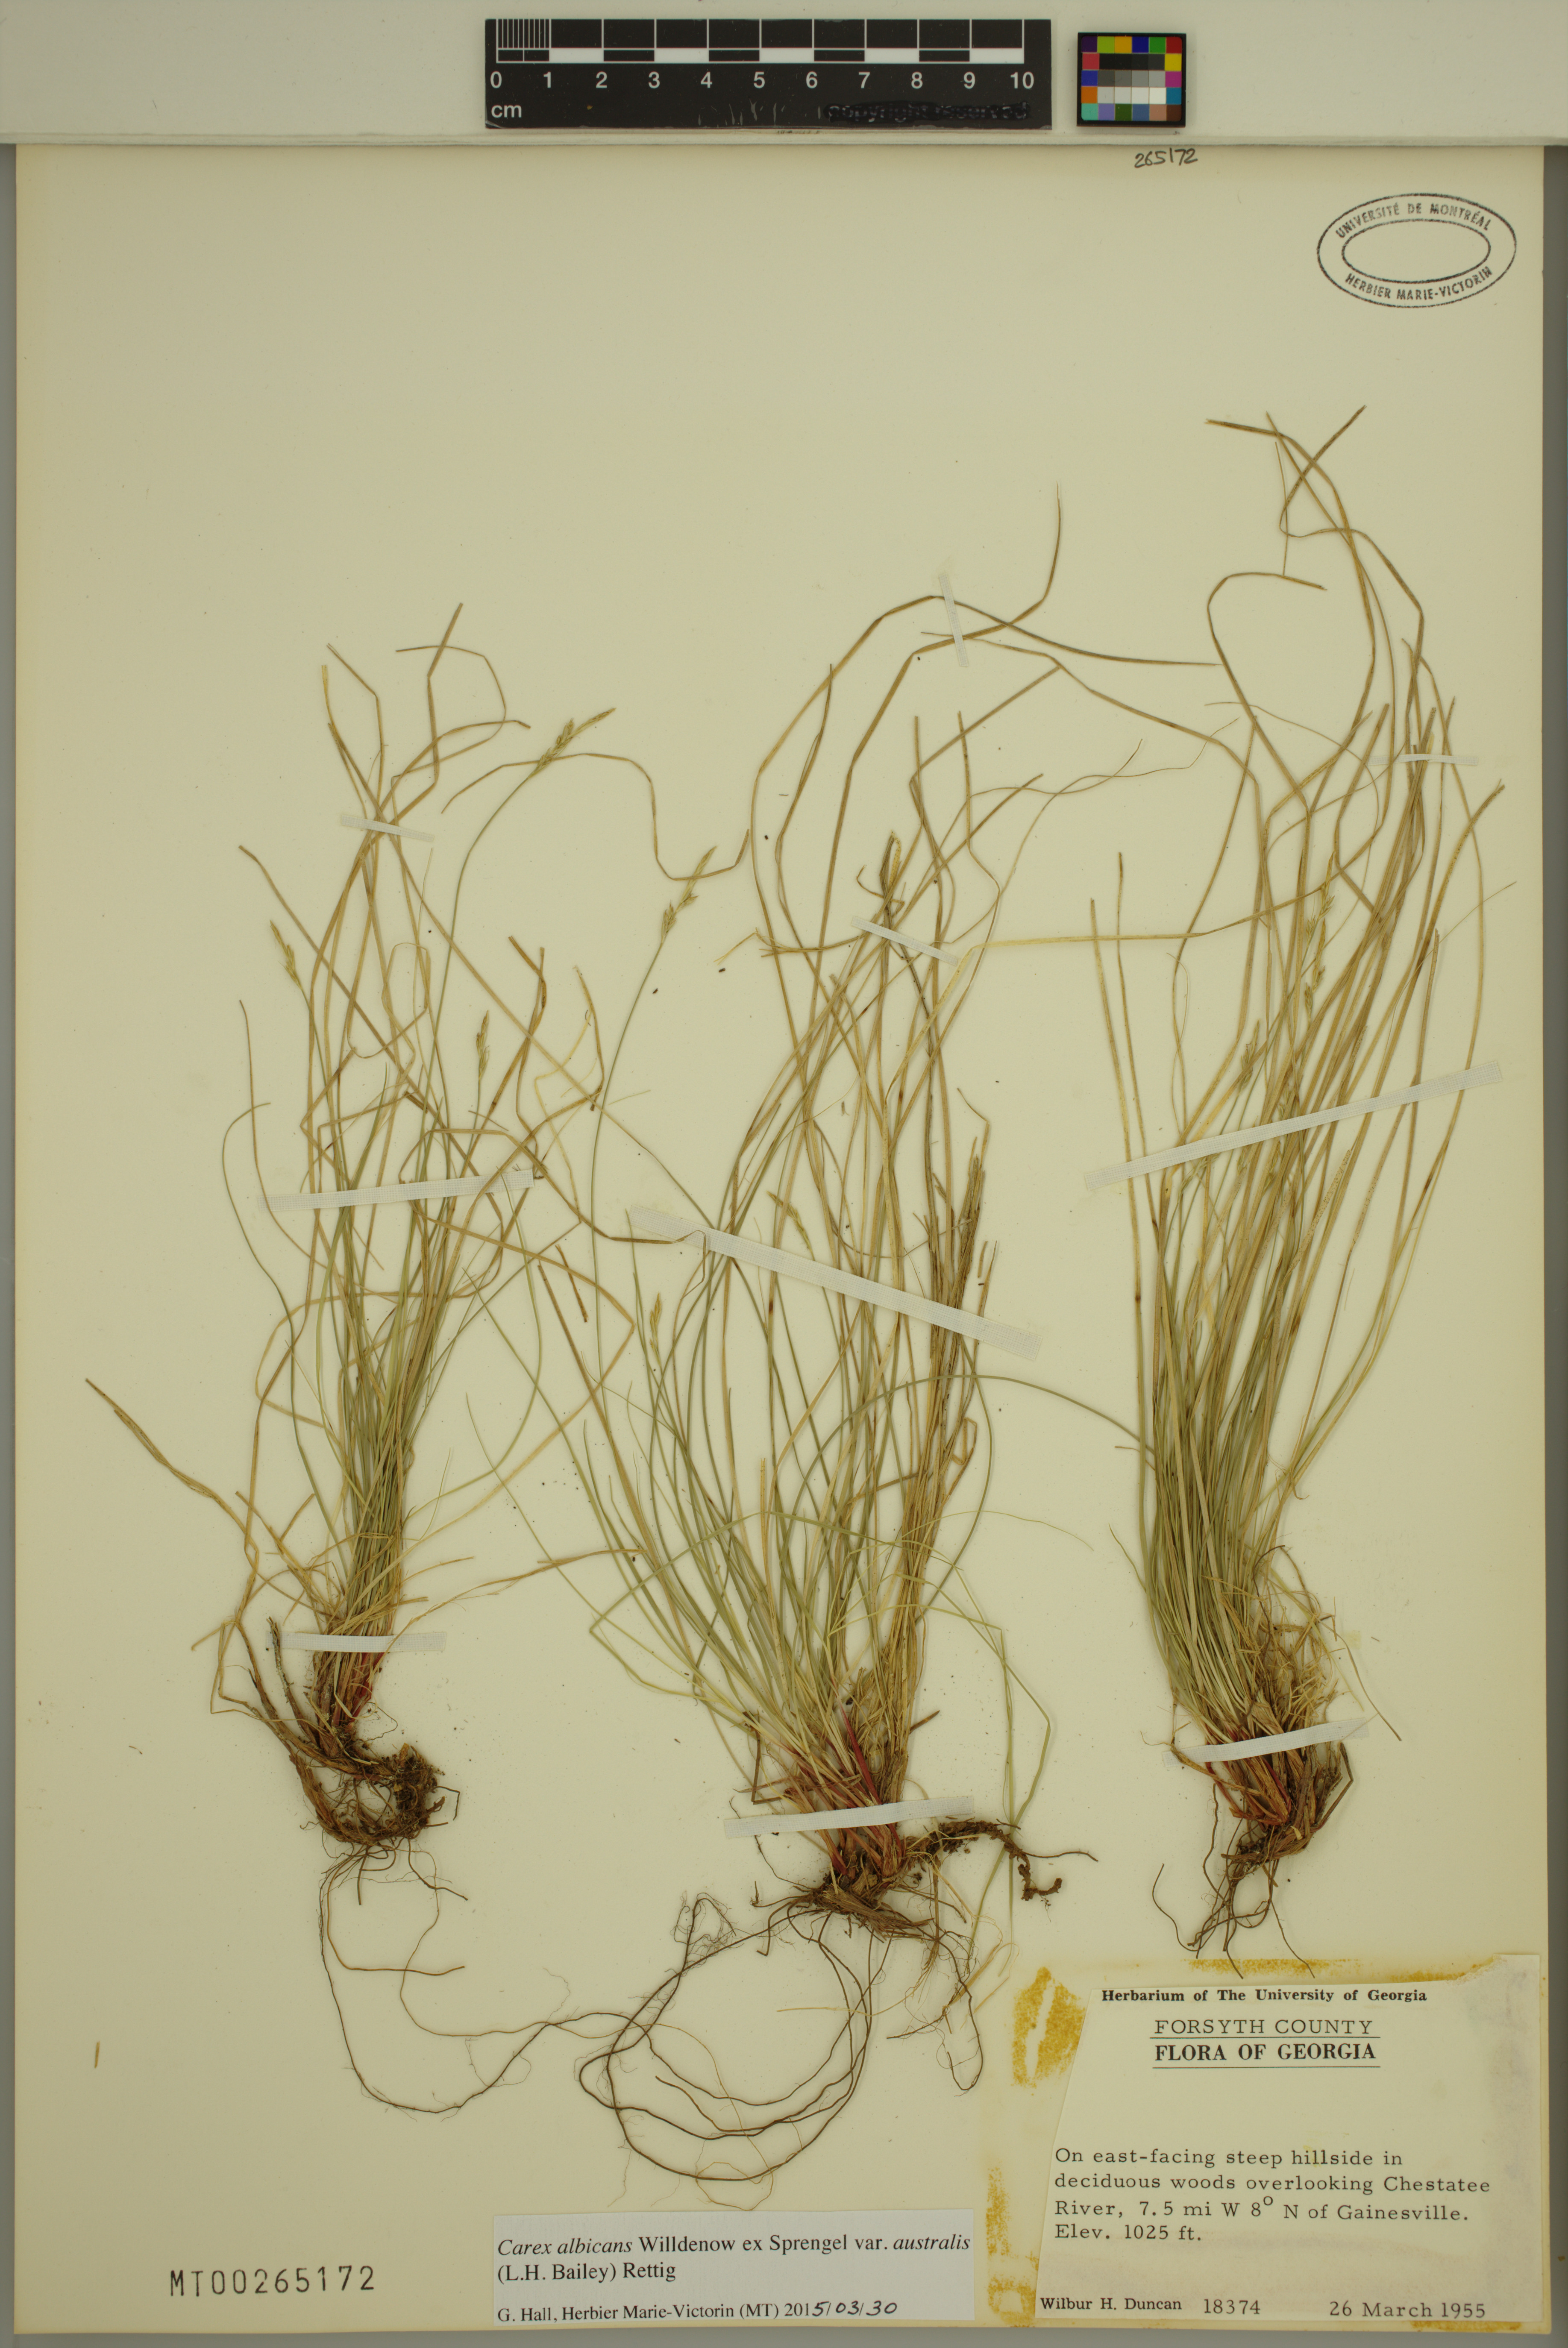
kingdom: Plantae
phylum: Tracheophyta
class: Liliopsida
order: Poales
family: Cyperaceae
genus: Carex
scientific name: Carex albicans
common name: Bellow-beaked sedge
